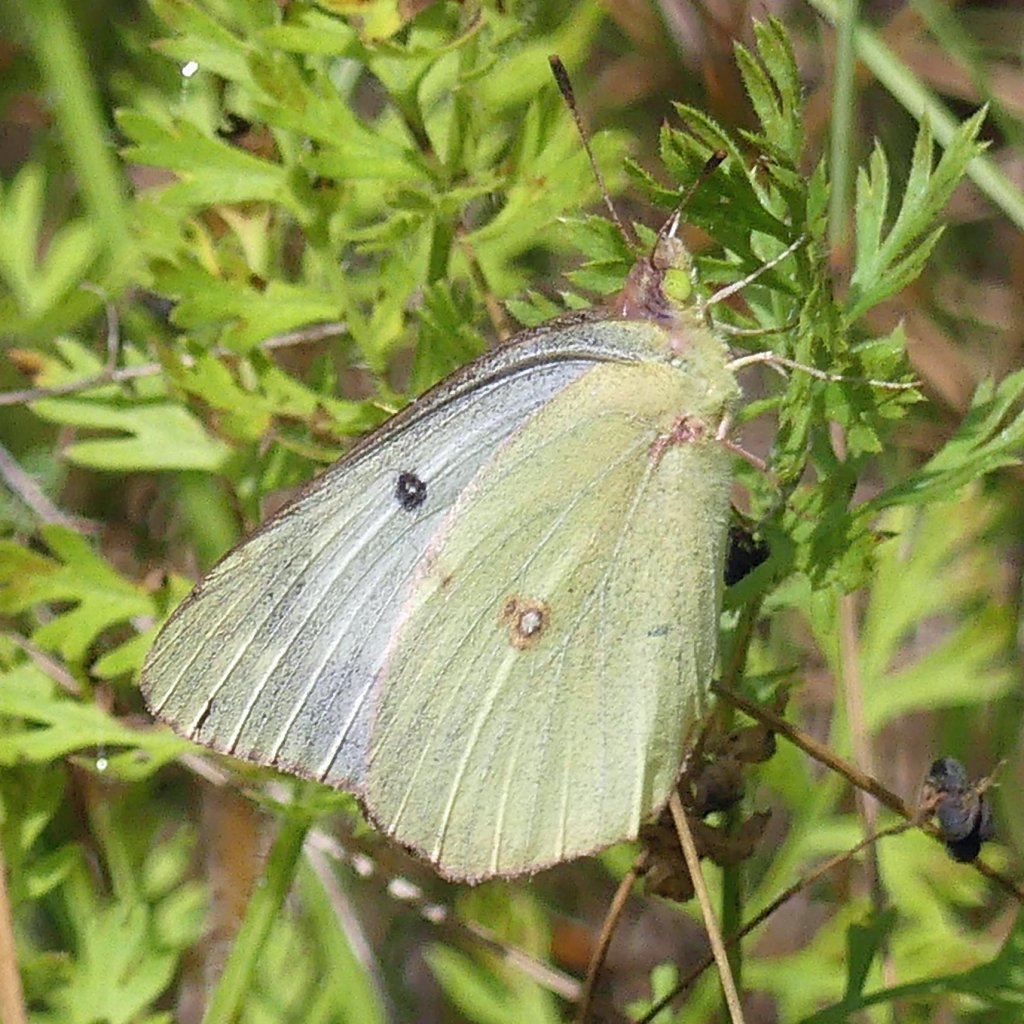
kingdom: Animalia
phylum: Arthropoda
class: Insecta
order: Lepidoptera
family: Pieridae
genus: Colias
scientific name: Colias philodice
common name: Clouded Sulphur
